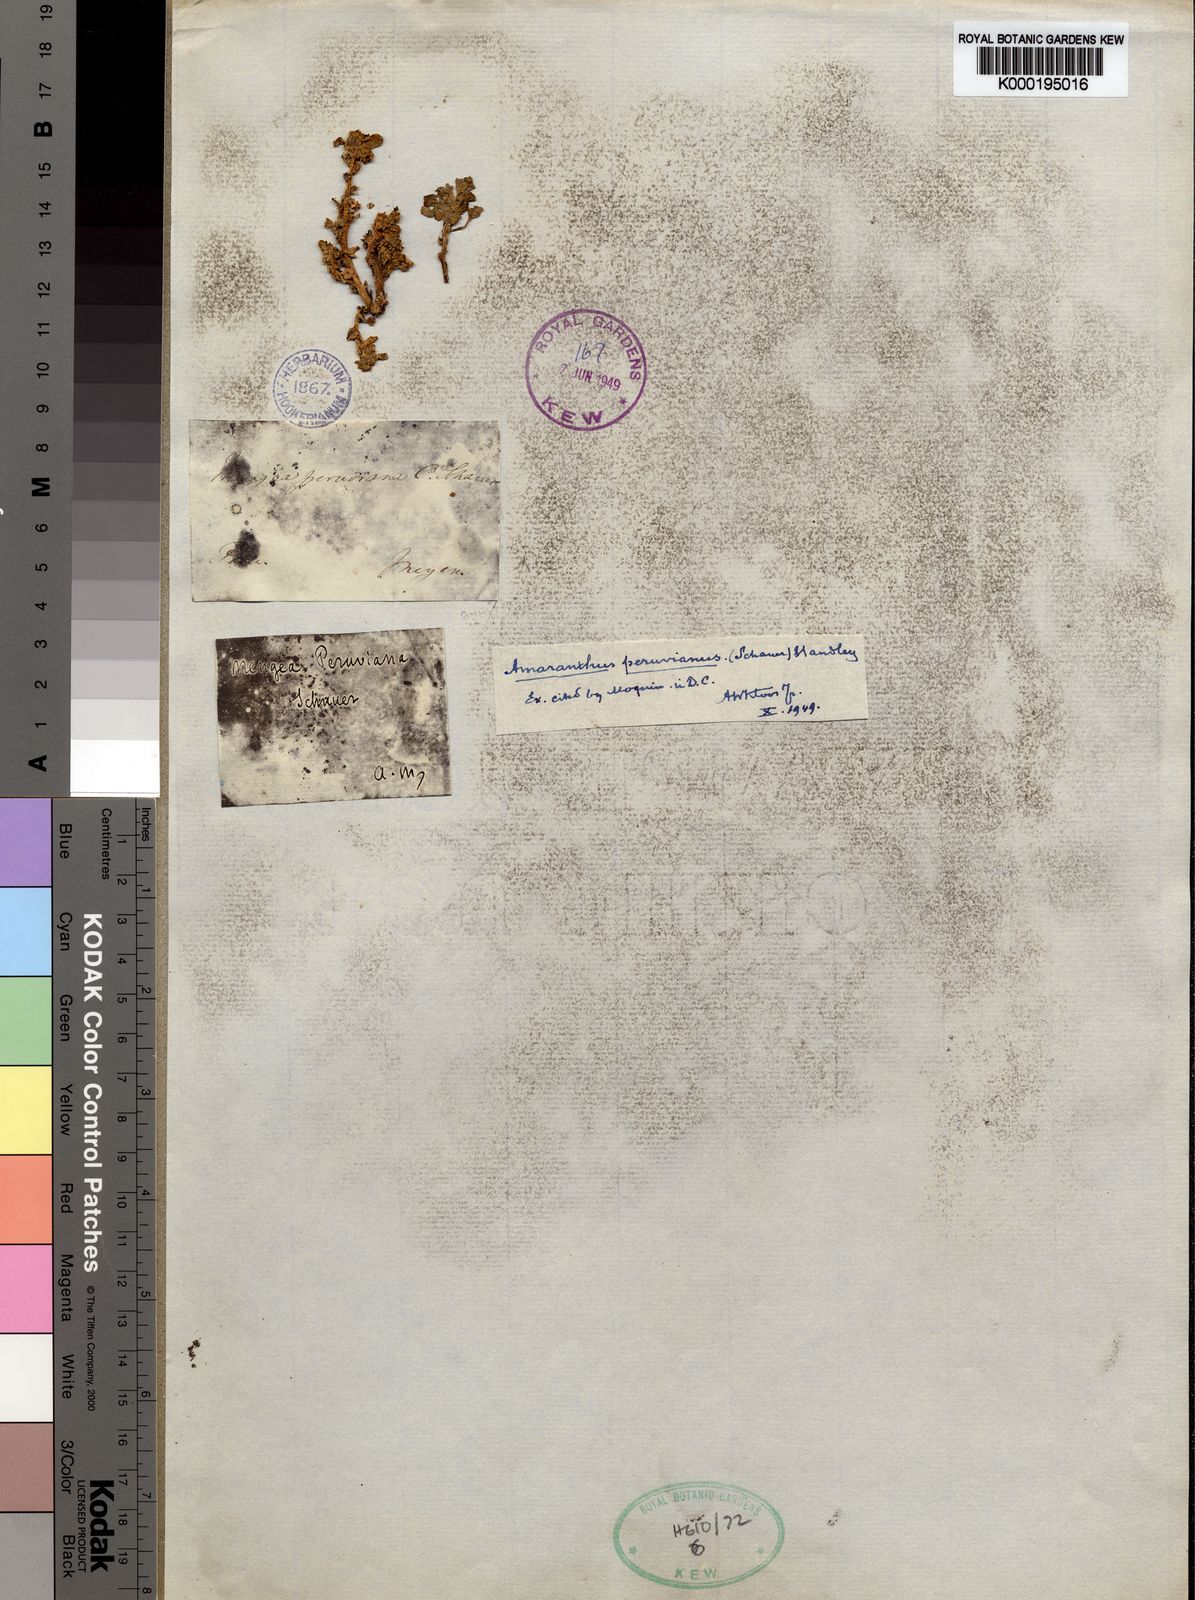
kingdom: Plantae
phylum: Tracheophyta
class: Magnoliopsida
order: Caryophyllales
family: Amaranthaceae
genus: Amaranthus
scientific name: Amaranthus peruvianus
